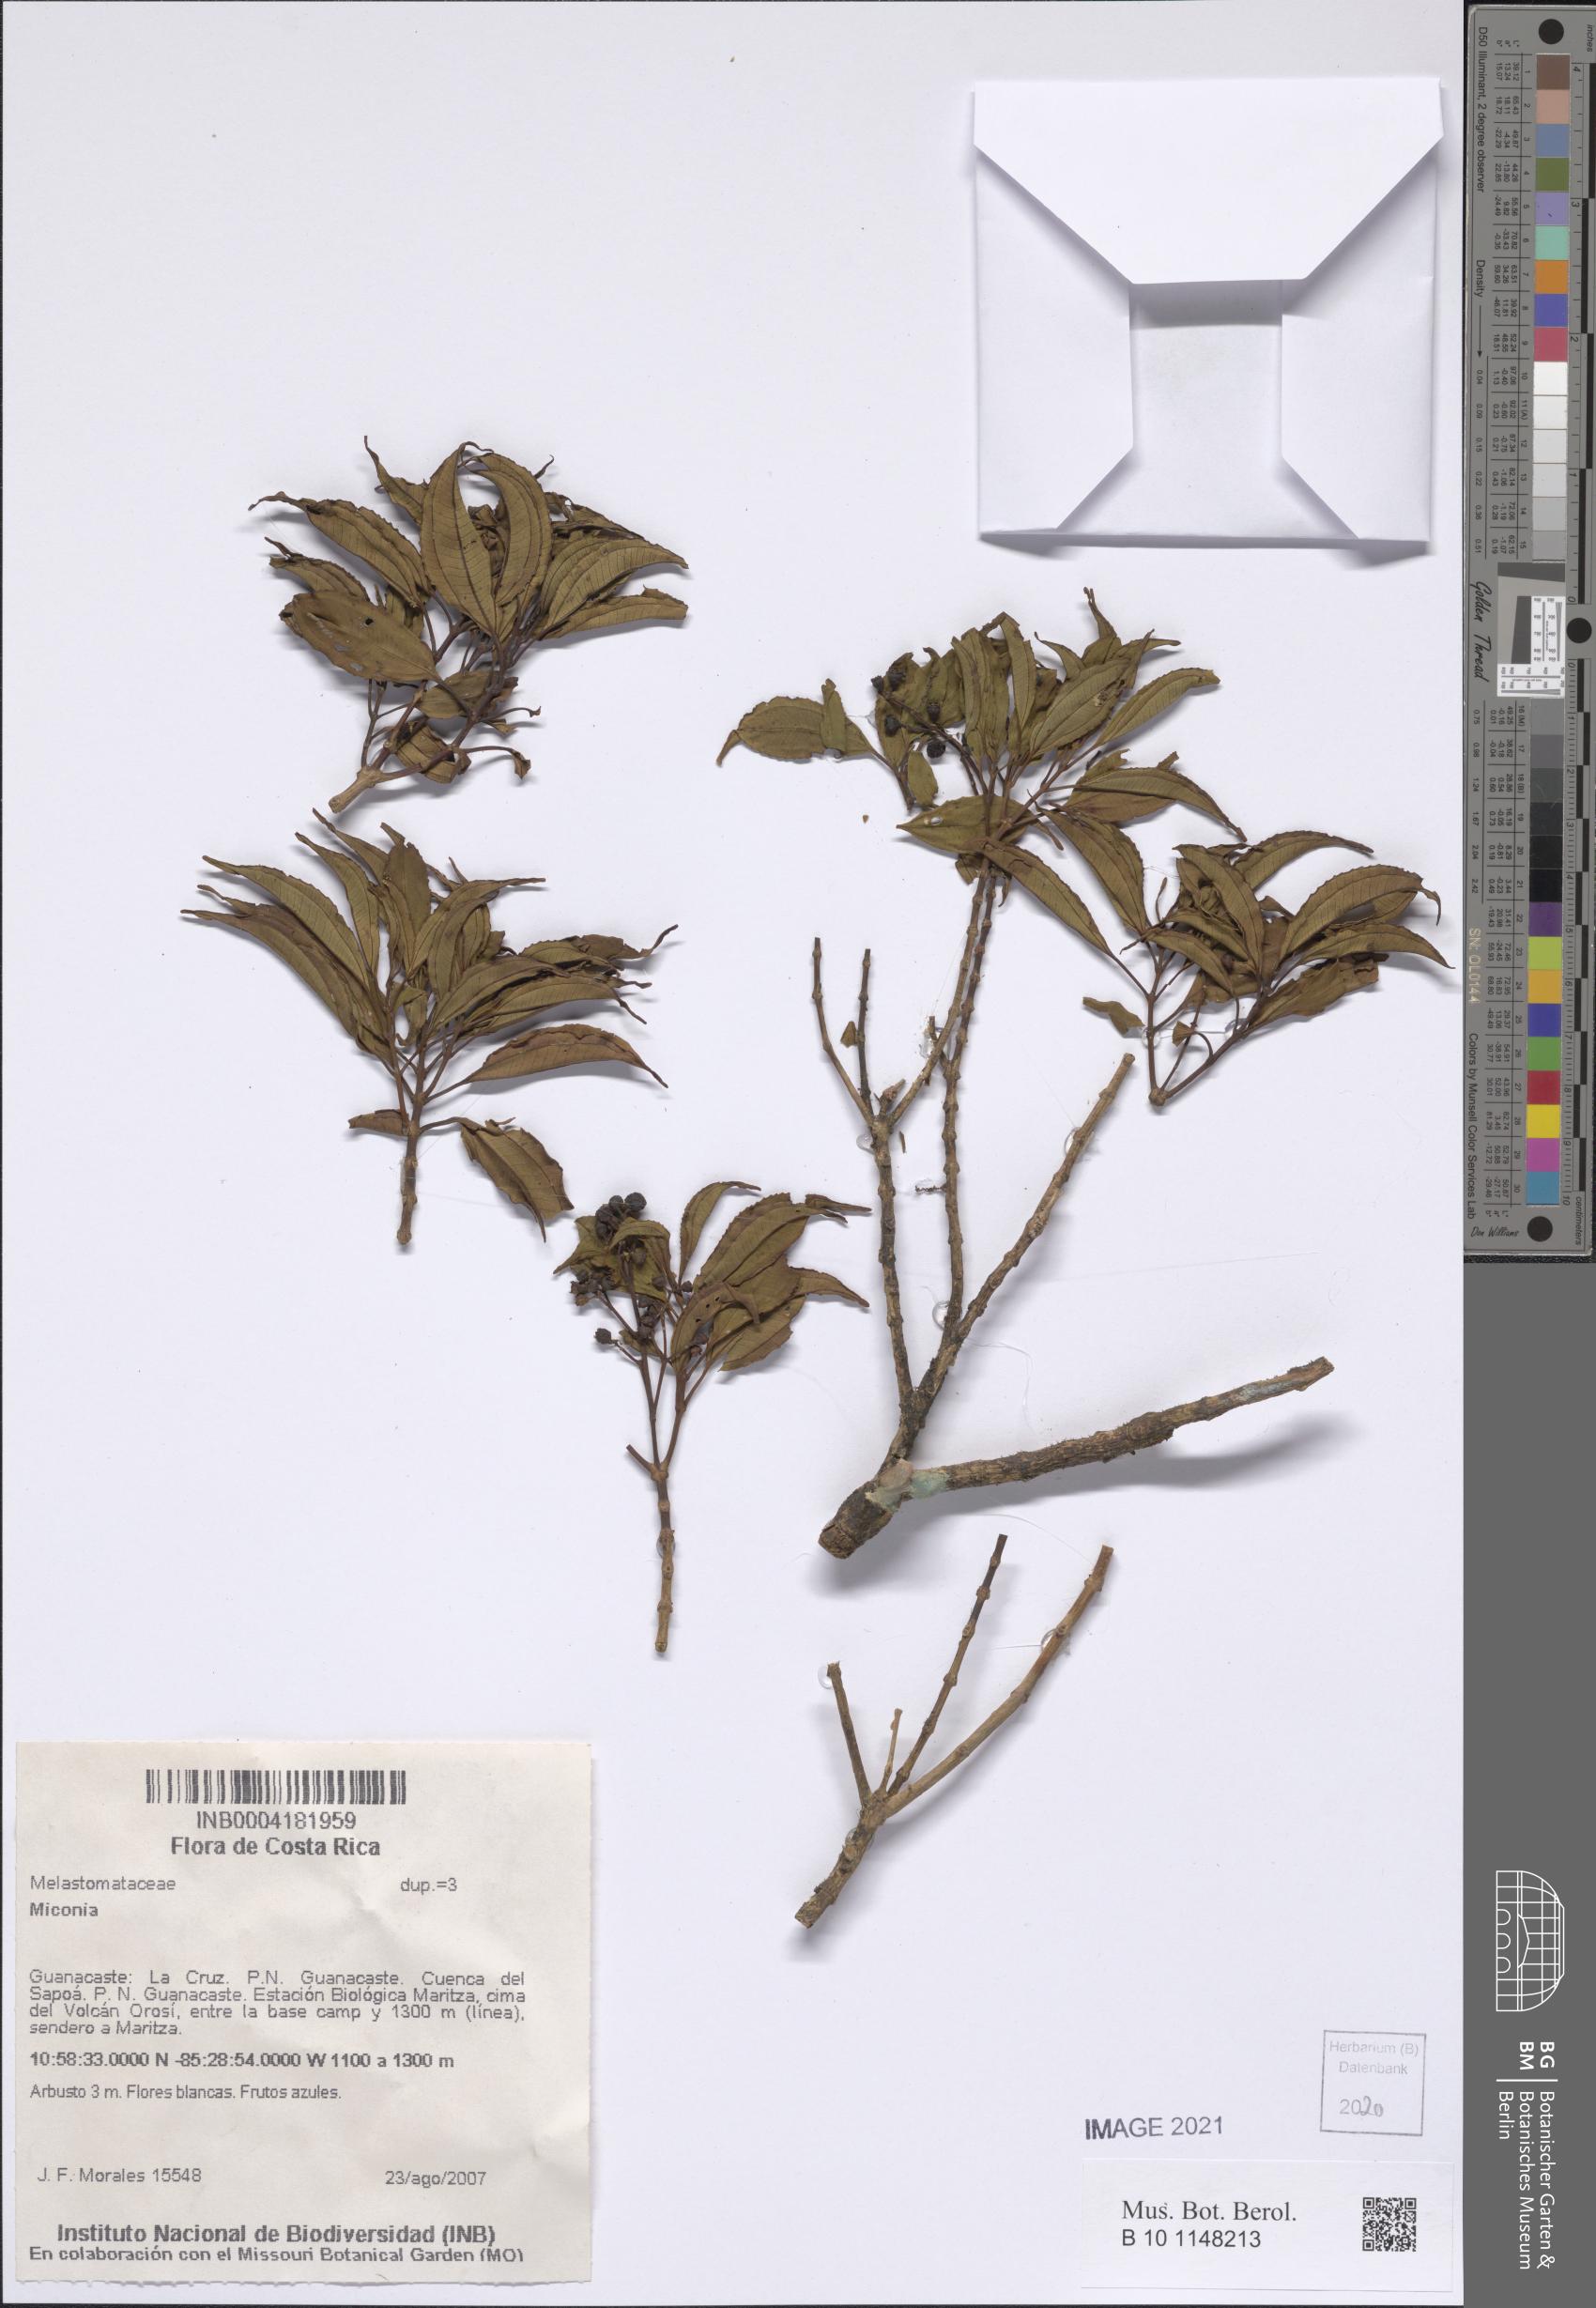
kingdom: Plantae
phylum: Tracheophyta
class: Magnoliopsida
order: Myrtales
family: Melastomataceae
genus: Miconia
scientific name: Miconia
